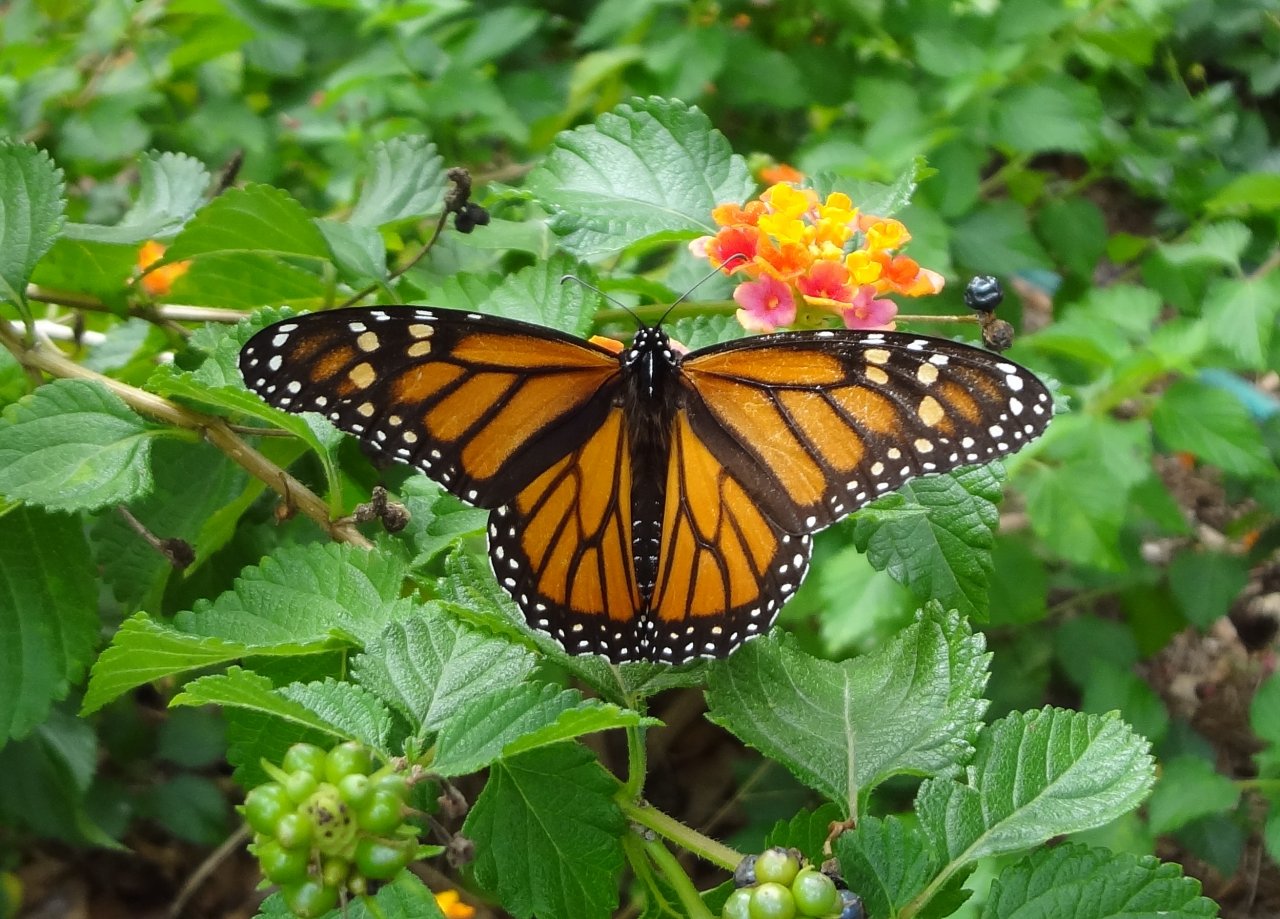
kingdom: Animalia
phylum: Arthropoda
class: Insecta
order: Lepidoptera
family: Nymphalidae
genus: Danaus
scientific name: Danaus plexippus
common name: Monarch
